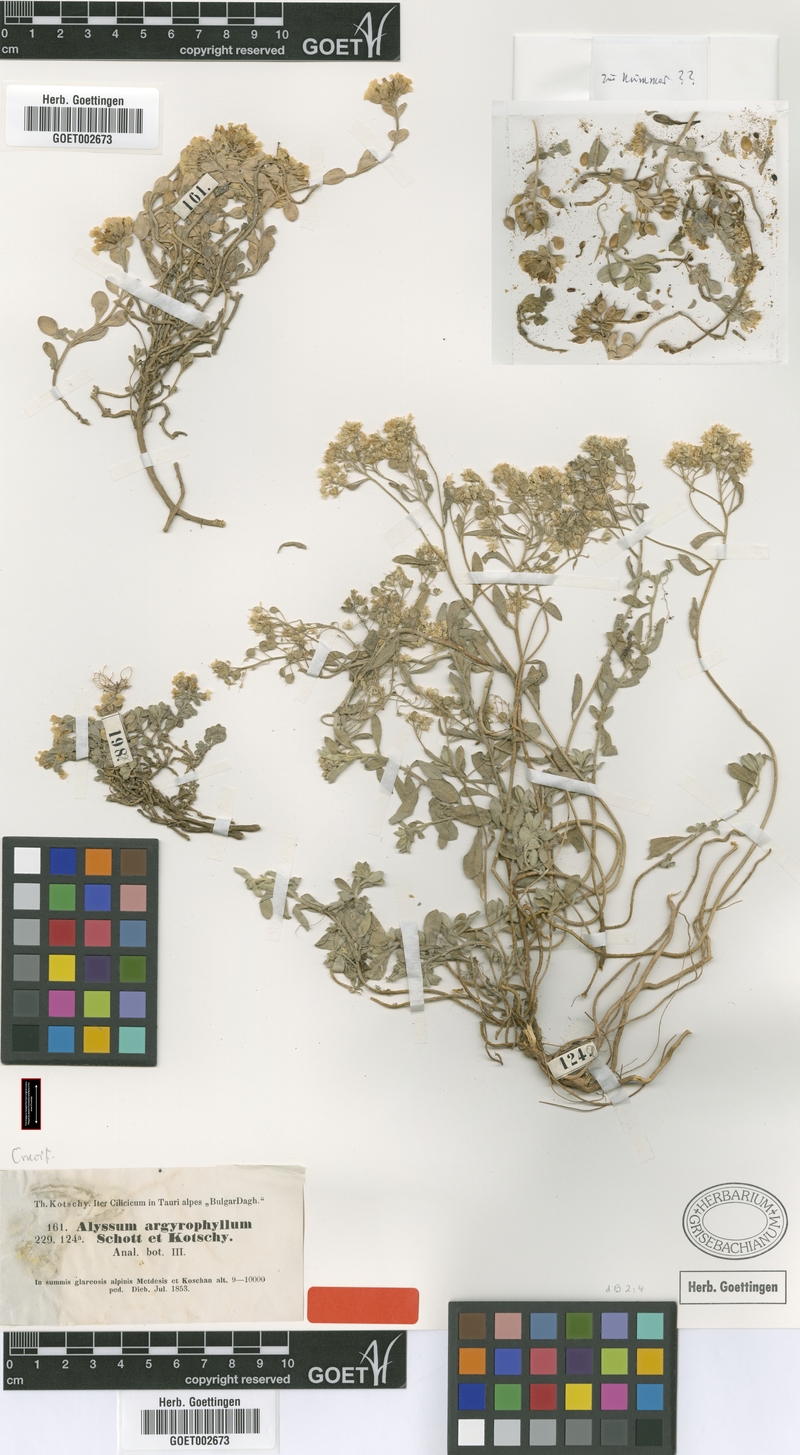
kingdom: Plantae
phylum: Tracheophyta
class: Magnoliopsida
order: Brassicales
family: Brassicaceae
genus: Alyssum
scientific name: Alyssum argyrophyllum
